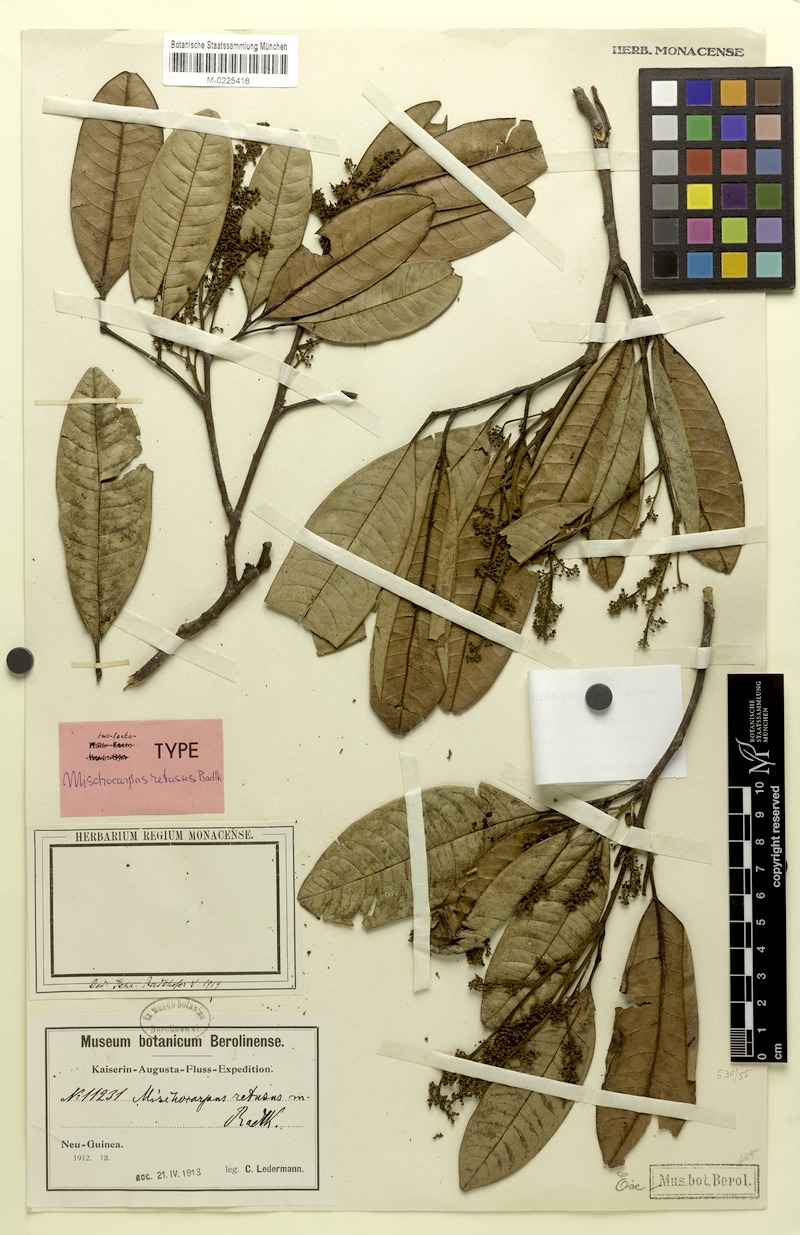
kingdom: Plantae
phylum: Tracheophyta
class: Magnoliopsida
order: Sapindales
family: Sapindaceae
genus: Mischocarpus
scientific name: Mischocarpus pyriformis
